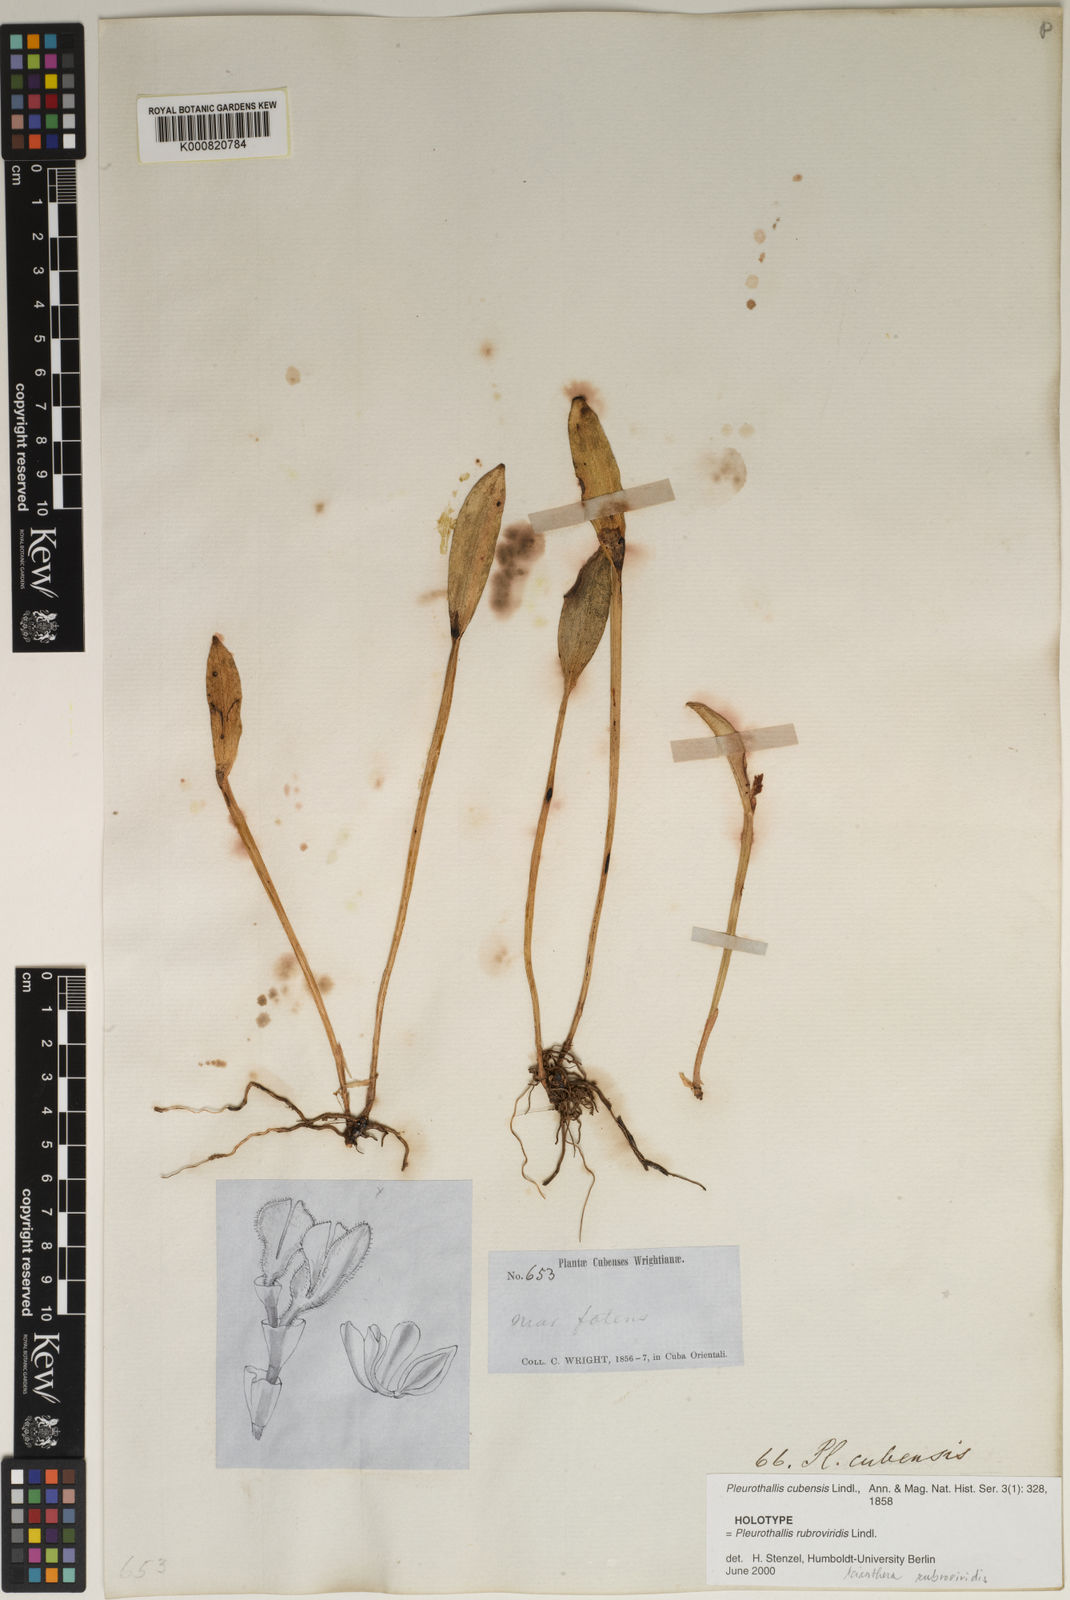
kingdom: Plantae
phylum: Tracheophyta
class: Liliopsida
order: Asparagales
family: Orchidaceae
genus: Acianthera
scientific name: Acianthera rubroviridis
